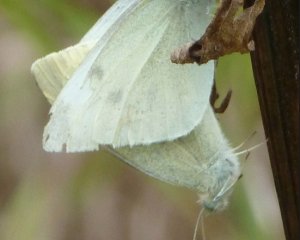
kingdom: Animalia
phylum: Arthropoda
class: Insecta
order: Lepidoptera
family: Pieridae
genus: Pieris
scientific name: Pieris rapae
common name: Cabbage White
